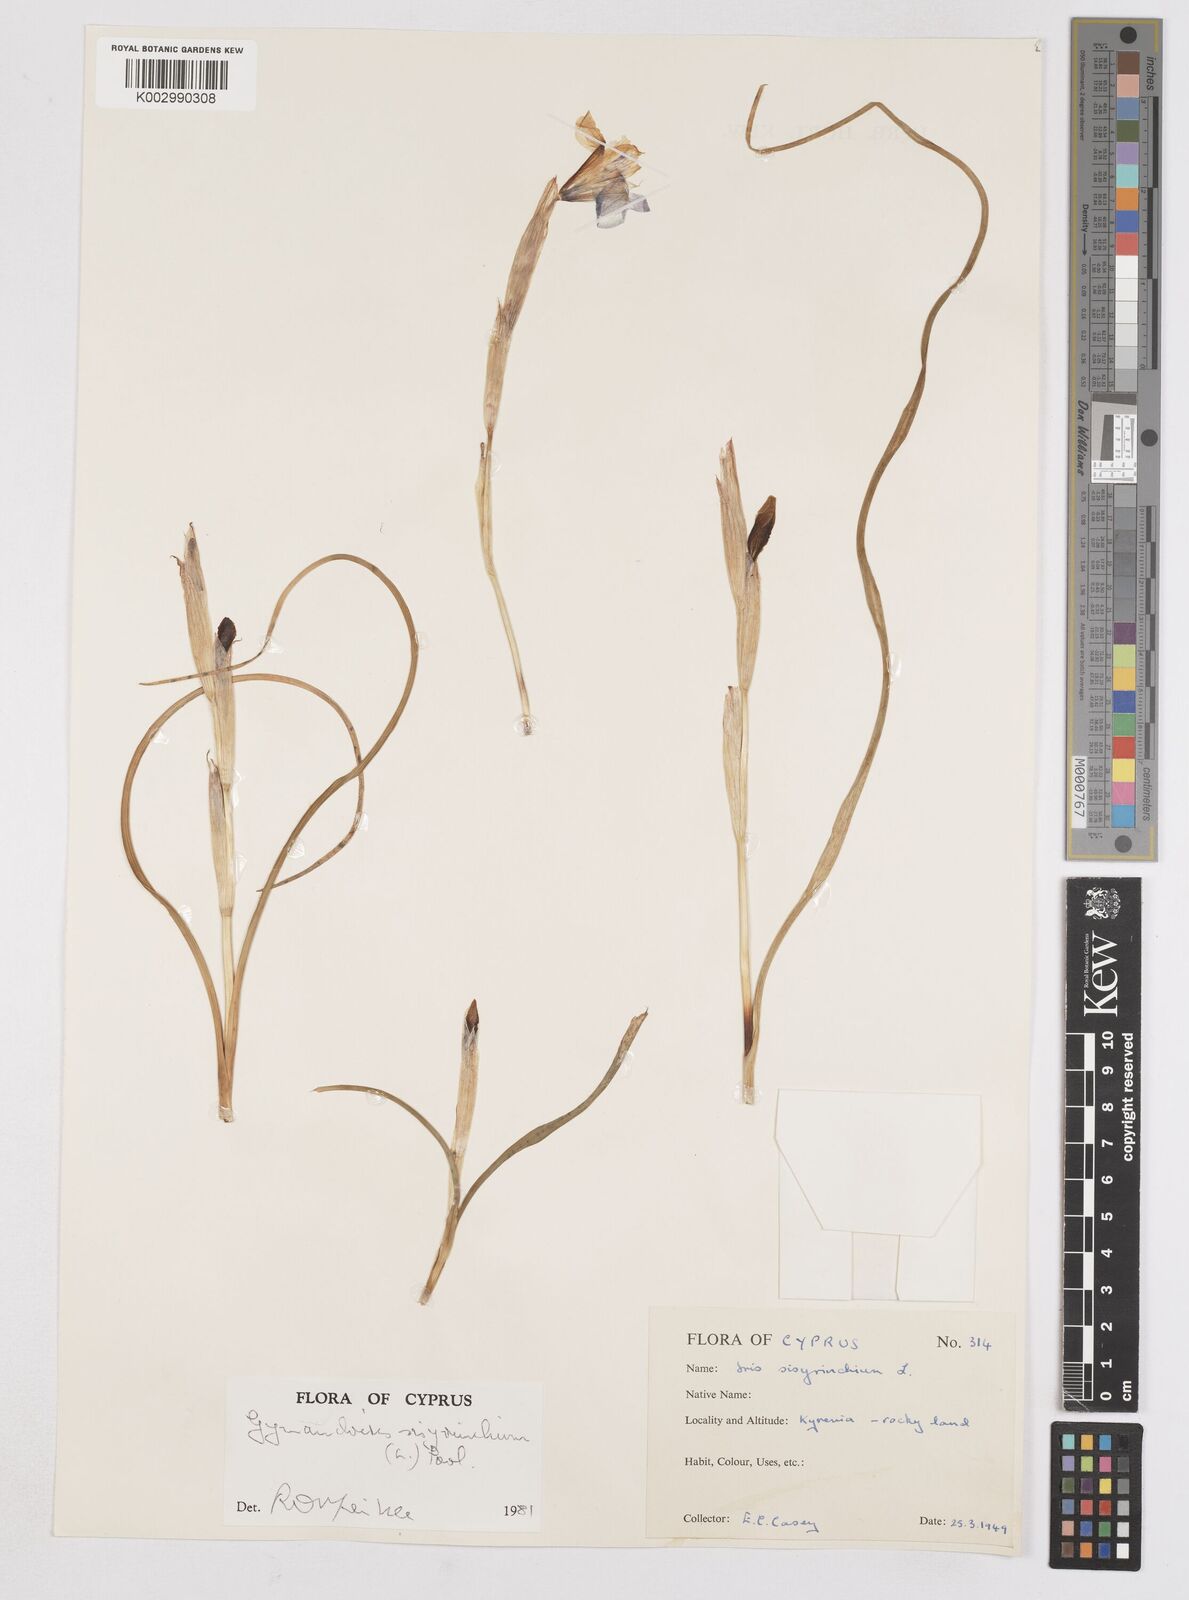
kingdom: Plantae
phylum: Tracheophyta
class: Liliopsida
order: Asparagales
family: Iridaceae
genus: Moraea
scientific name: Moraea sisyrinchium
